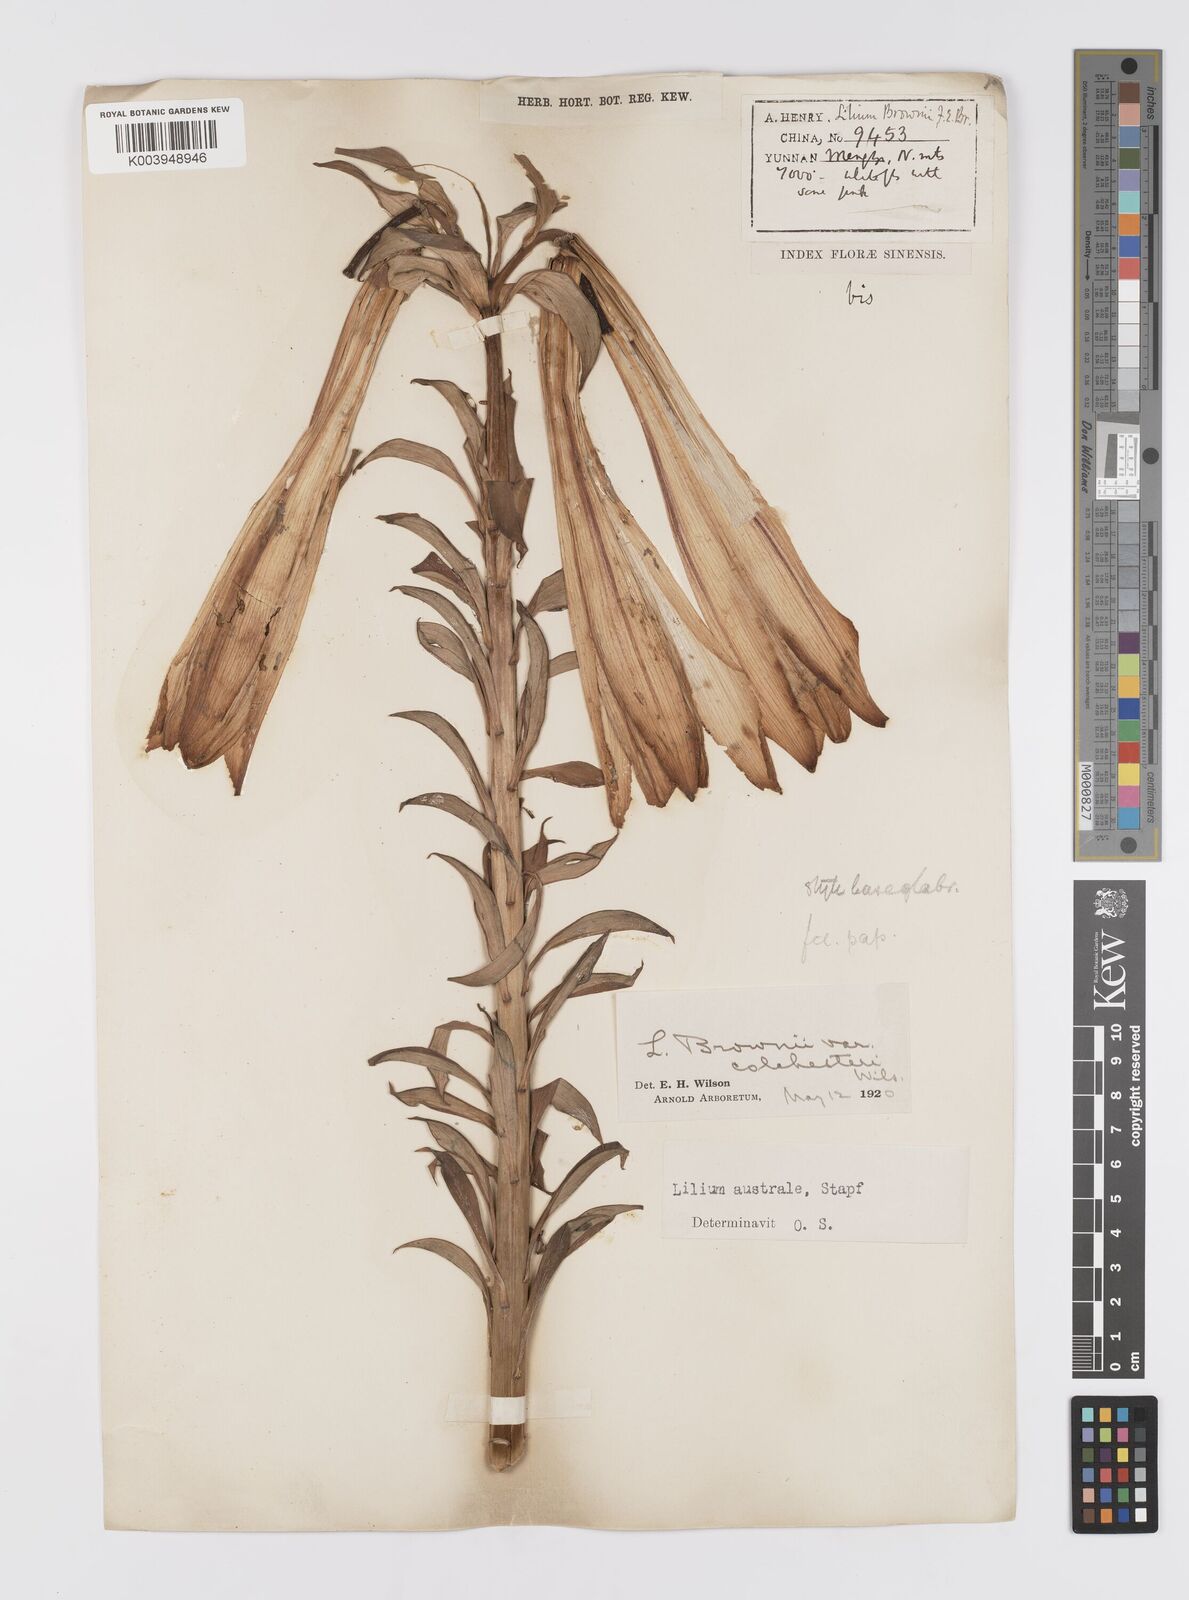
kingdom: Plantae
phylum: Tracheophyta
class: Liliopsida
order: Liliales
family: Liliaceae
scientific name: Liliaceae
